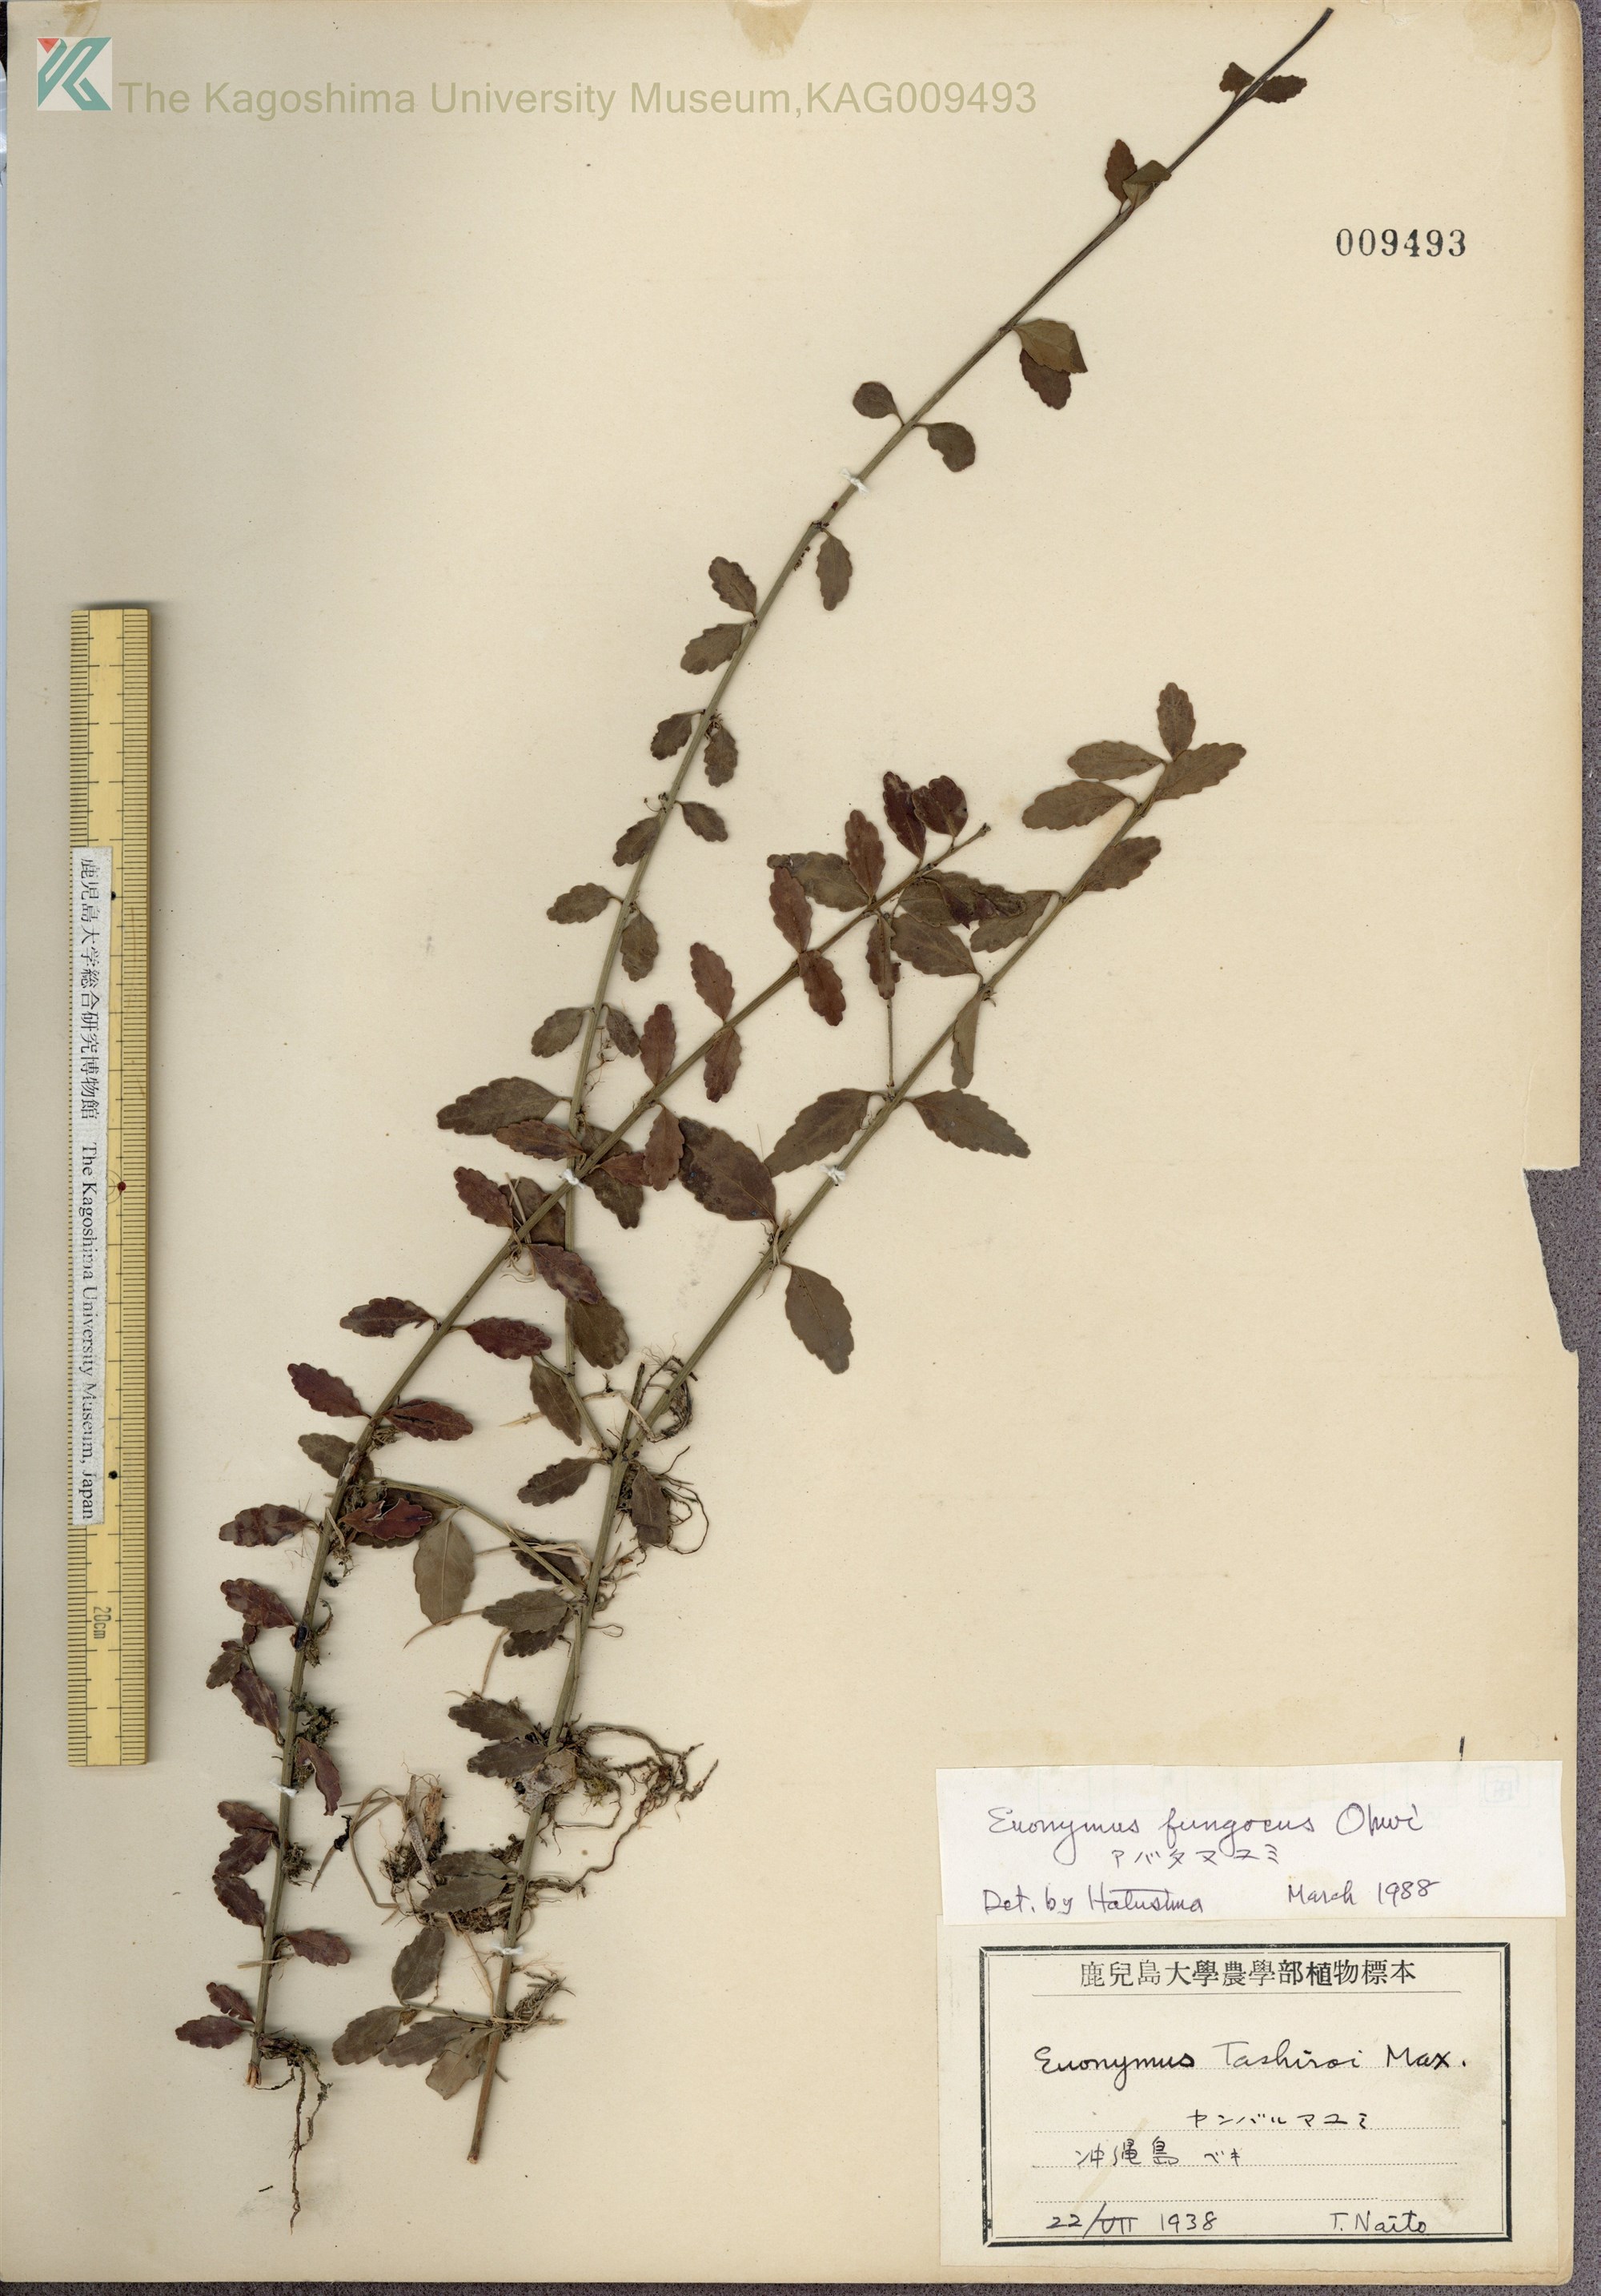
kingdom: Plantae
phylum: Tracheophyta
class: Magnoliopsida
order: Celastrales
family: Celastraceae
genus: Euonymus
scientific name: Euonymus echinatus
